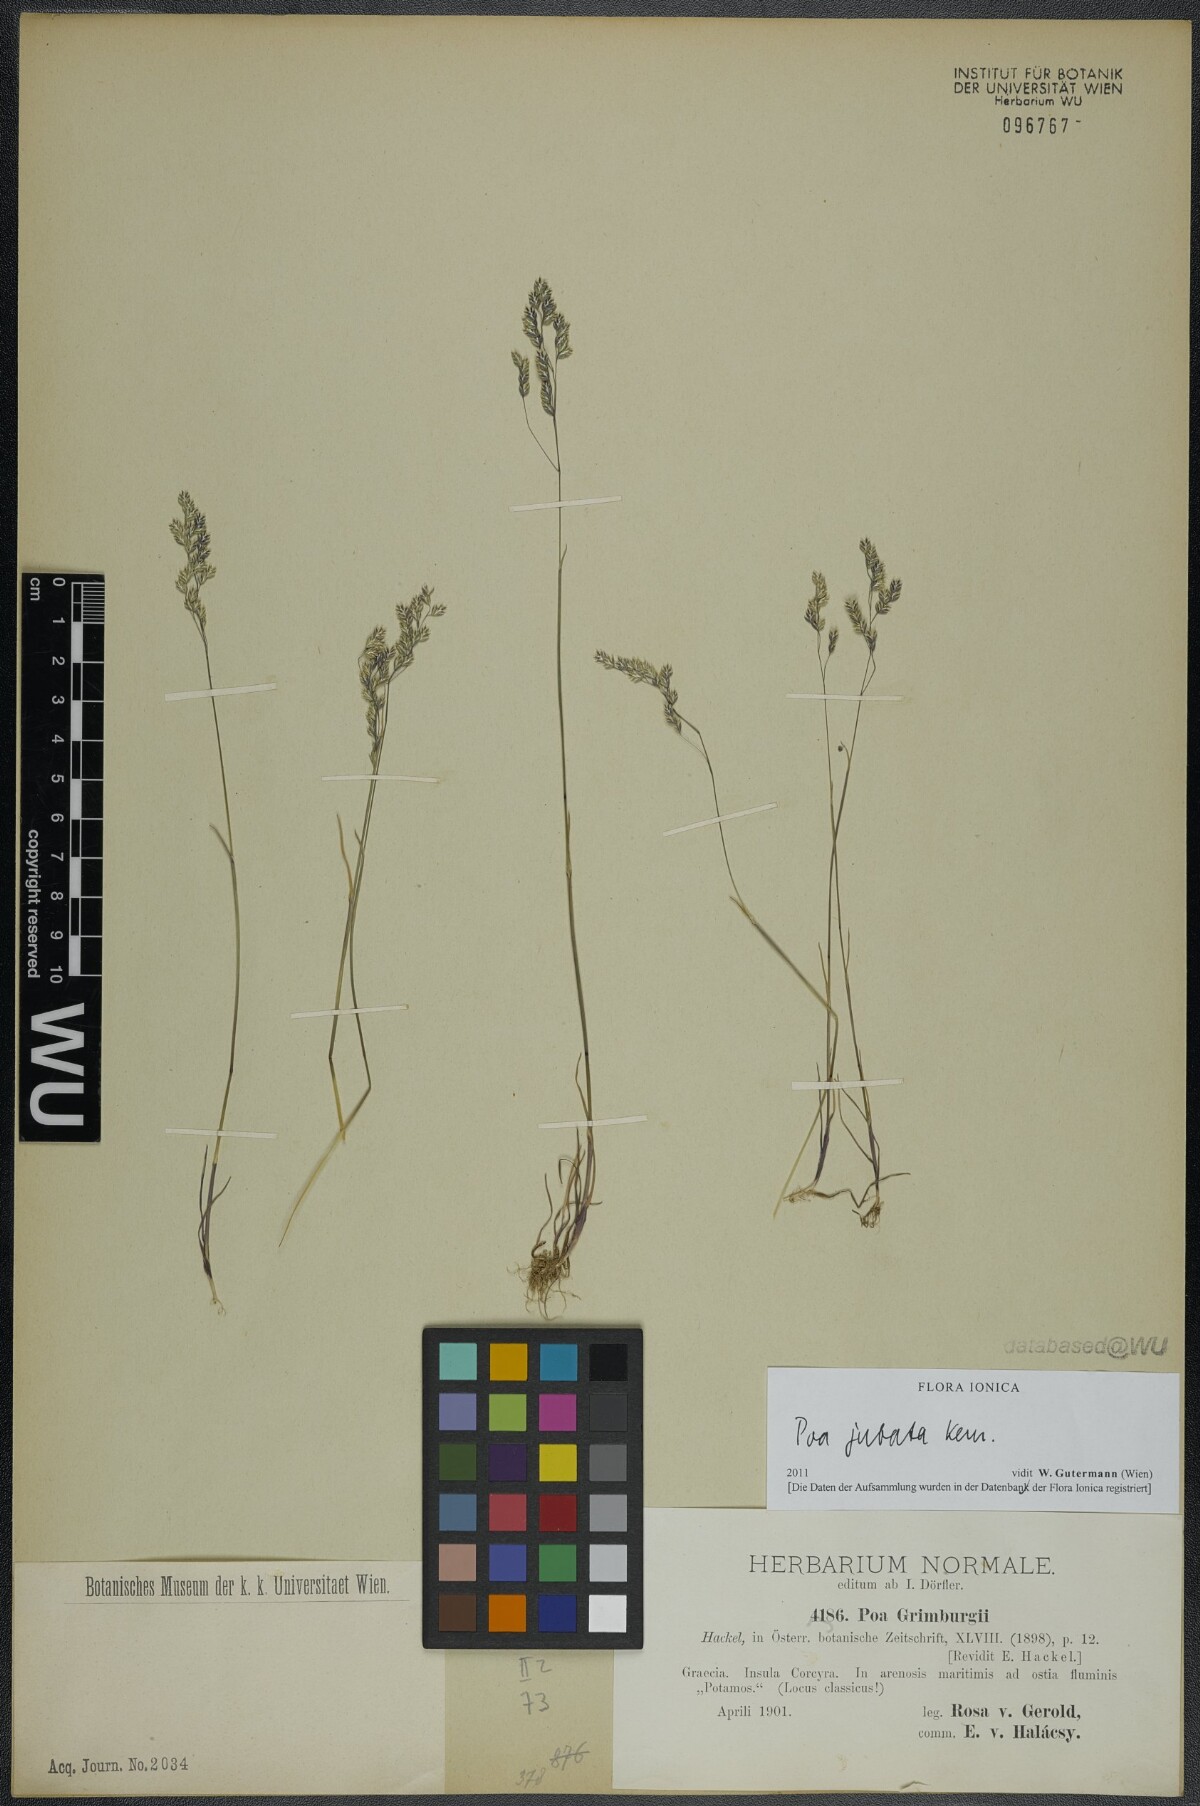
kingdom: Plantae
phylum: Tracheophyta
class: Liliopsida
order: Poales
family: Poaceae
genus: Poa
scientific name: Poa jubata
